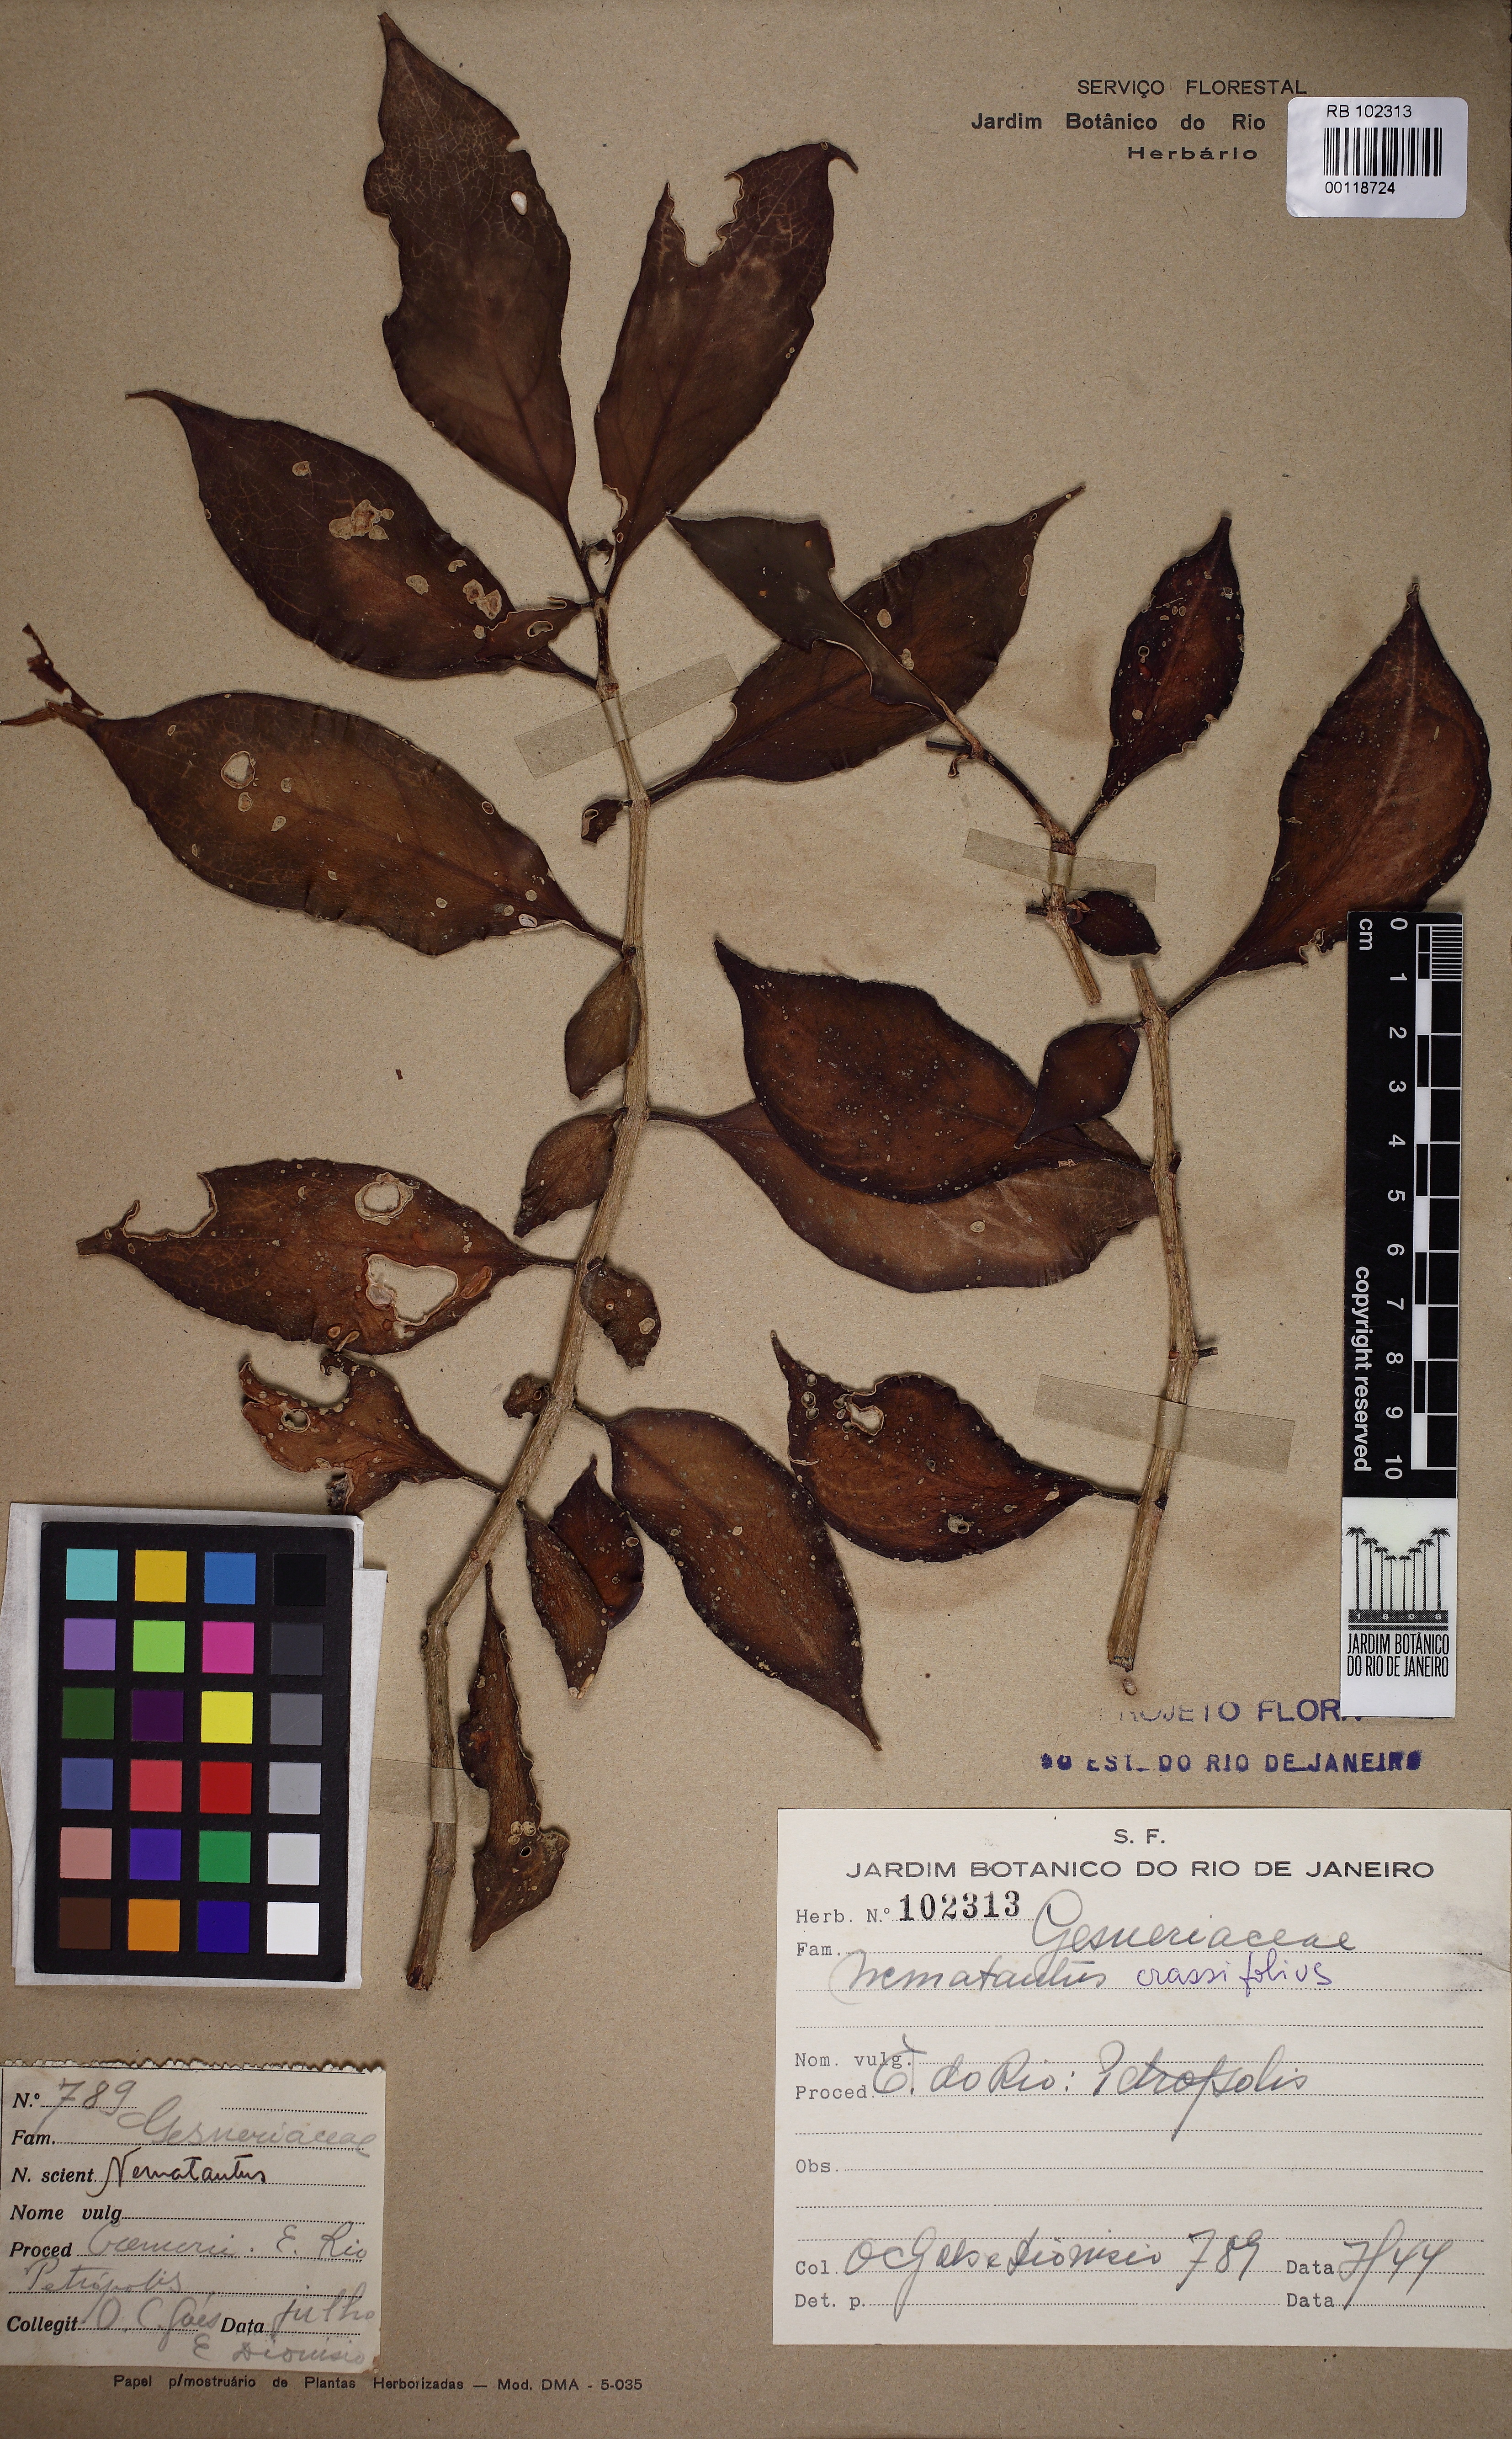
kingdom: Plantae
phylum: Tracheophyta
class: Magnoliopsida
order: Lamiales
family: Gesneriaceae
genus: Nematanthus
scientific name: Nematanthus crassifolius
